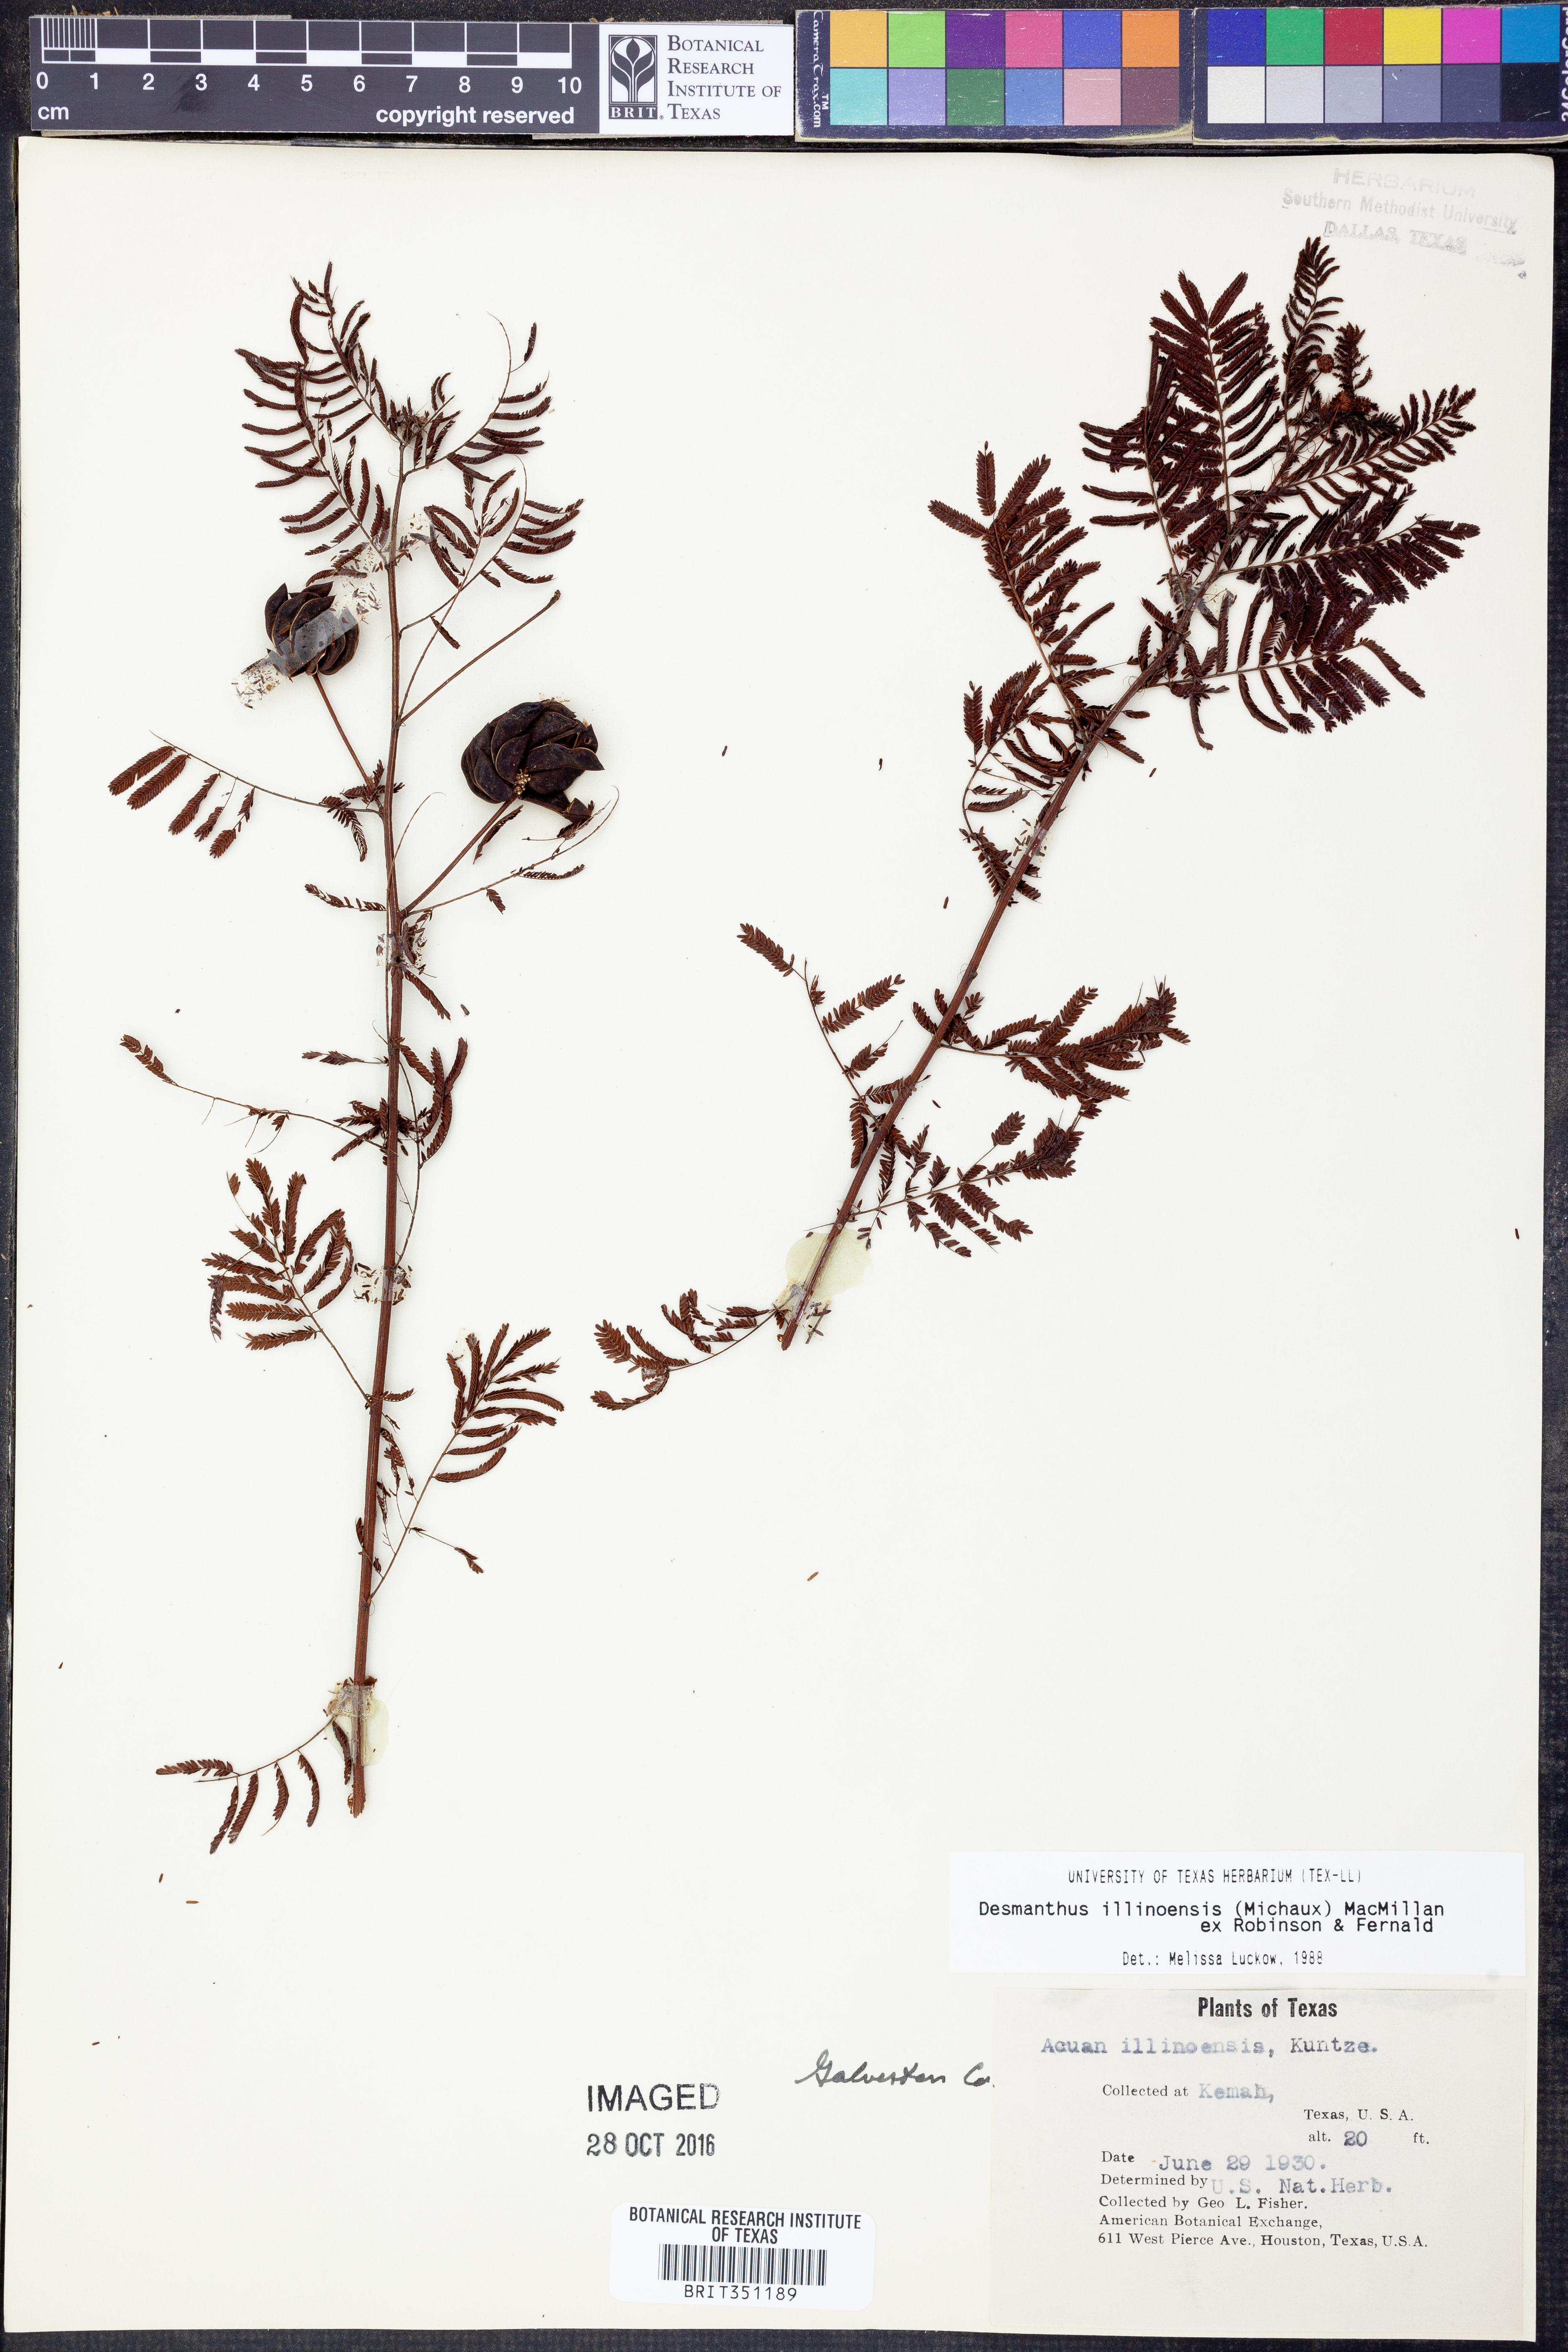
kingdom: Plantae
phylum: Tracheophyta
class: Magnoliopsida
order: Fabales
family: Fabaceae
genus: Desmanthus
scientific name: Desmanthus illinoensis
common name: Illinois bundle-flower
